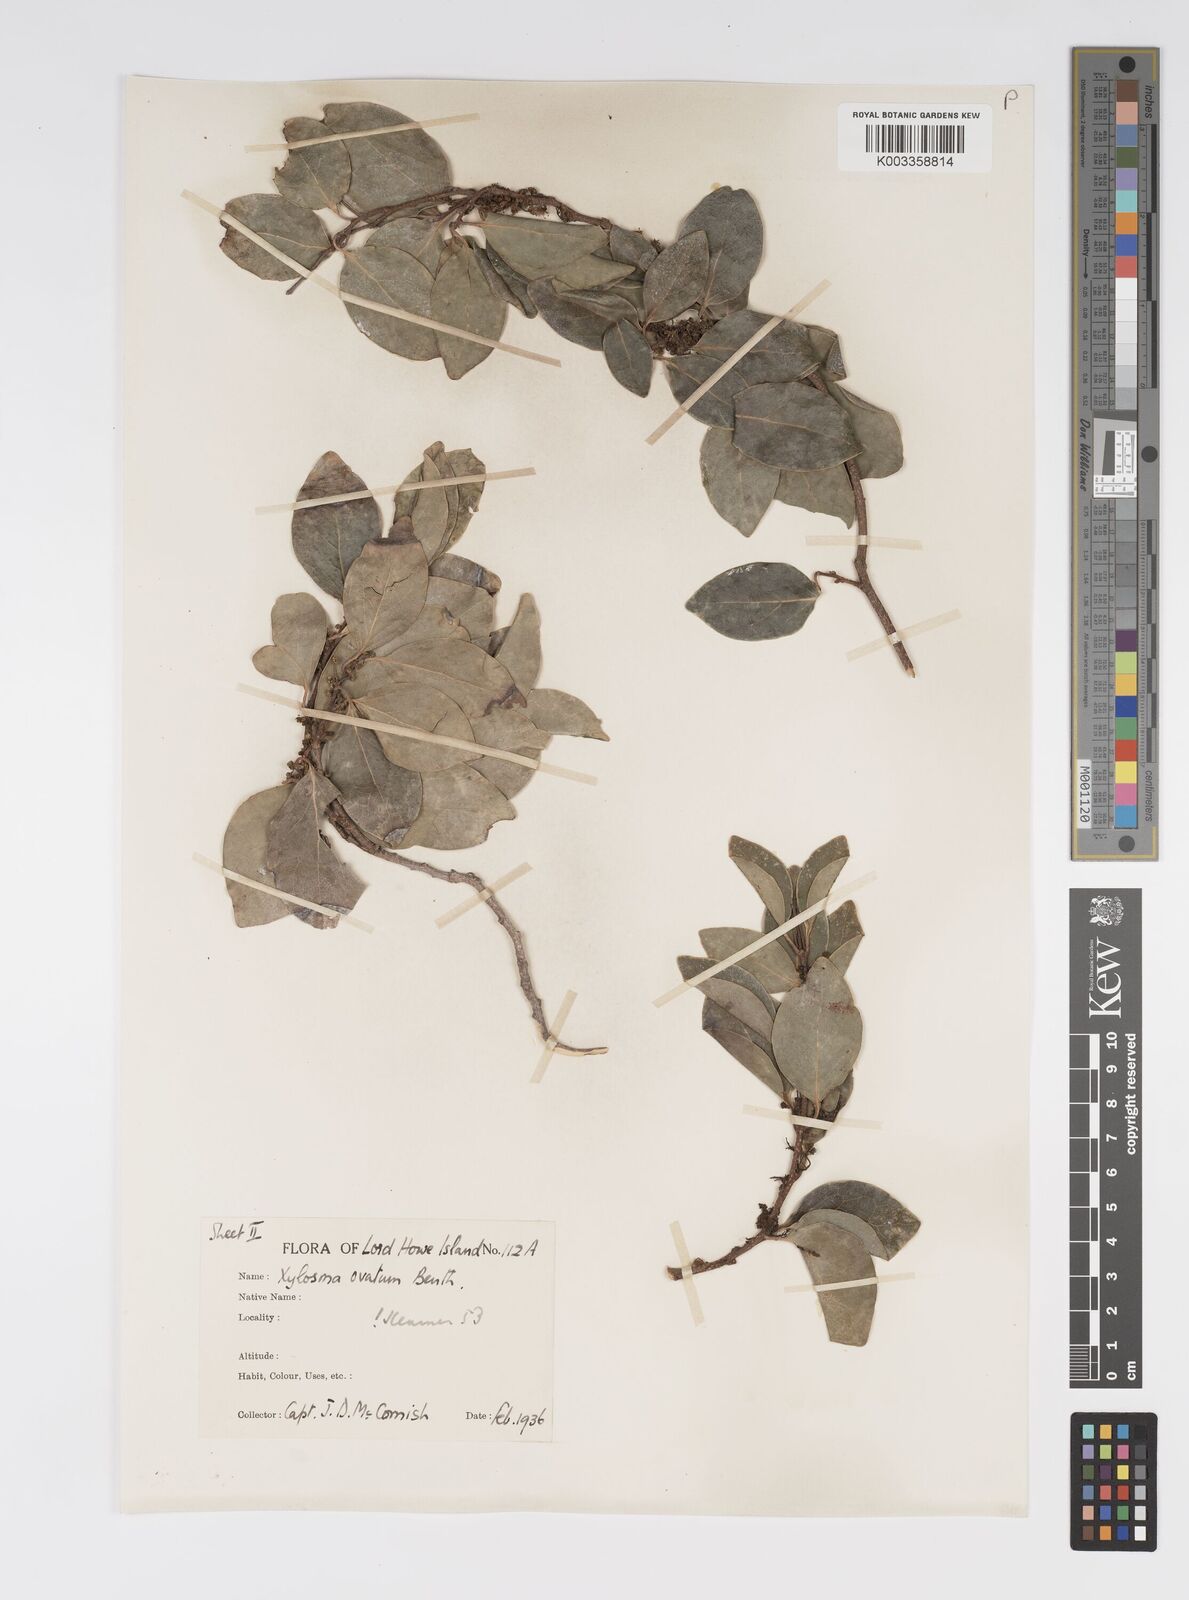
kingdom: Plantae
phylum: Tracheophyta
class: Magnoliopsida
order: Malpighiales
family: Salicaceae
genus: Xylosma
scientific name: Xylosma maidenii
